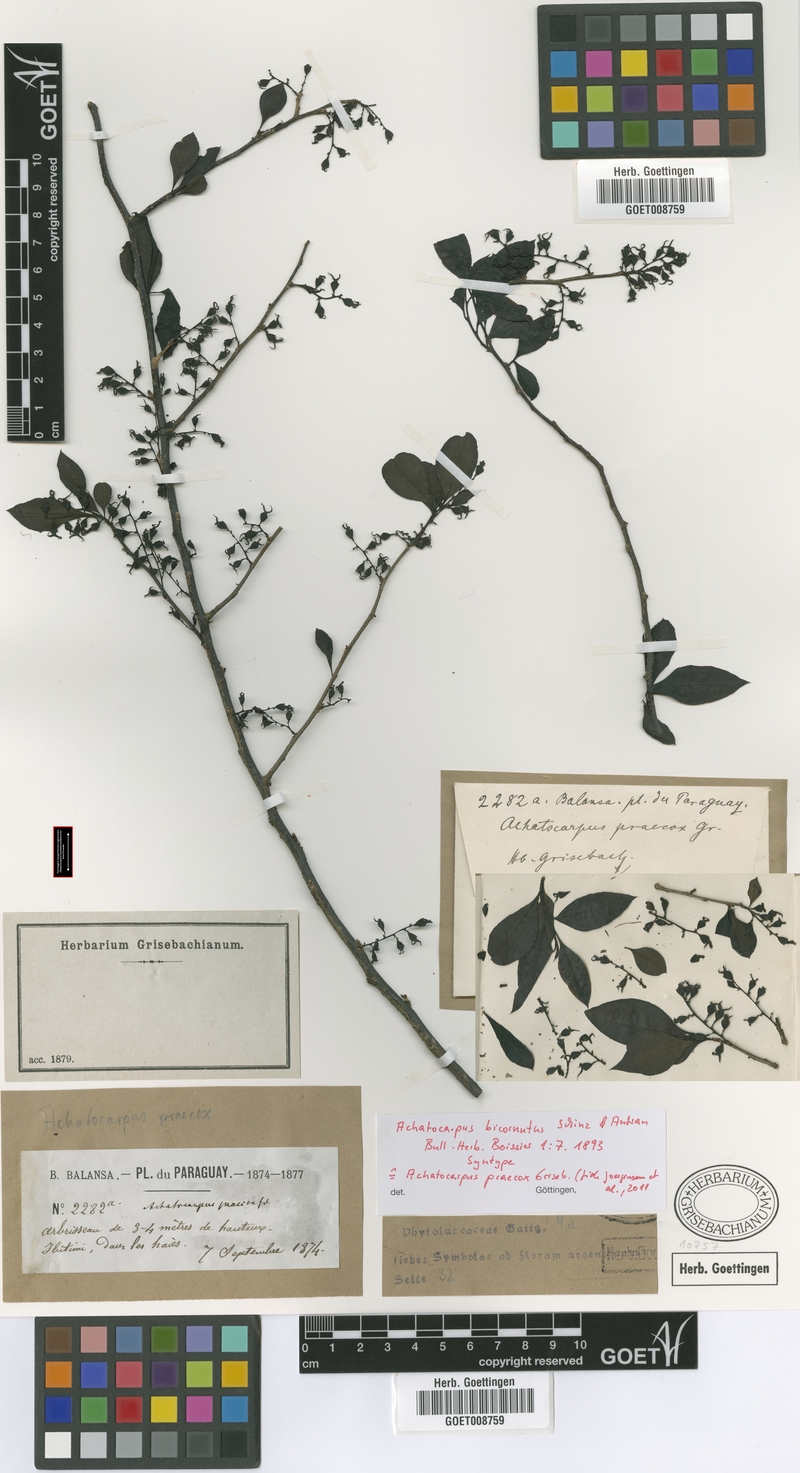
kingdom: Plantae
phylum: Tracheophyta
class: Magnoliopsida
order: Caryophyllales
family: Achatocarpaceae
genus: Achatocarpus
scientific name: Achatocarpus praecox
